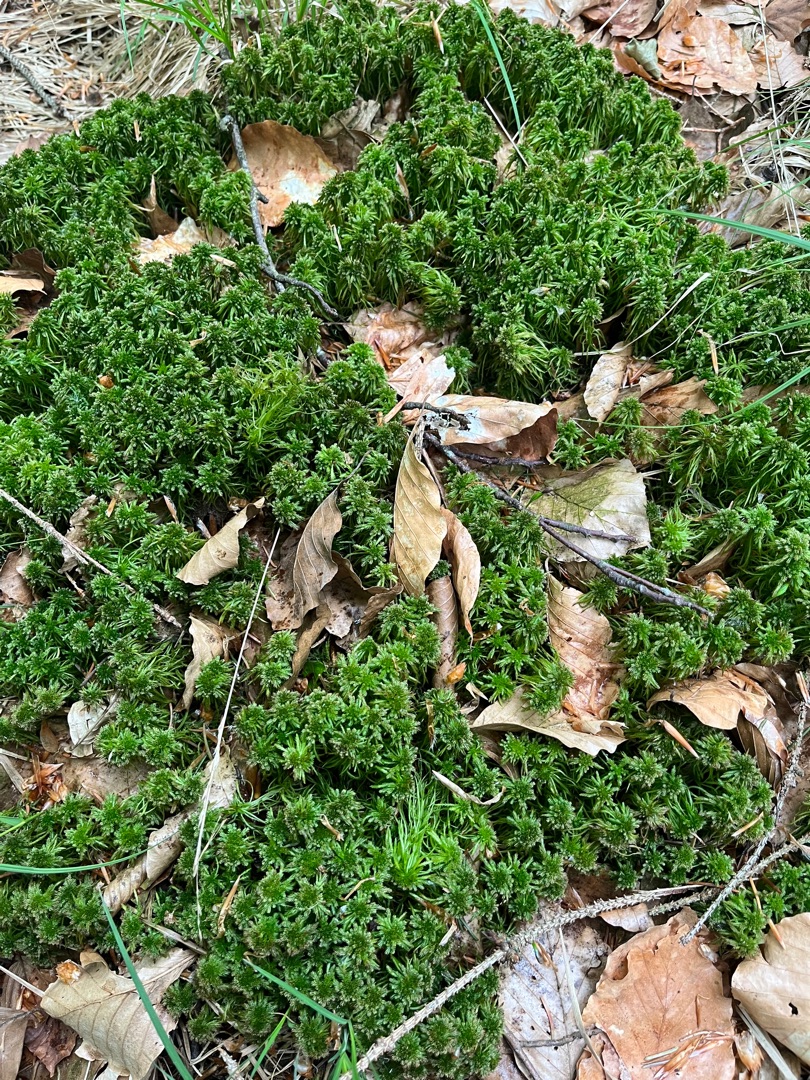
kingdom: Plantae
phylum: Bryophyta
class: Sphagnopsida
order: Sphagnales
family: Sphagnaceae
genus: Sphagnum
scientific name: Sphagnum
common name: Tørvemosslægten
